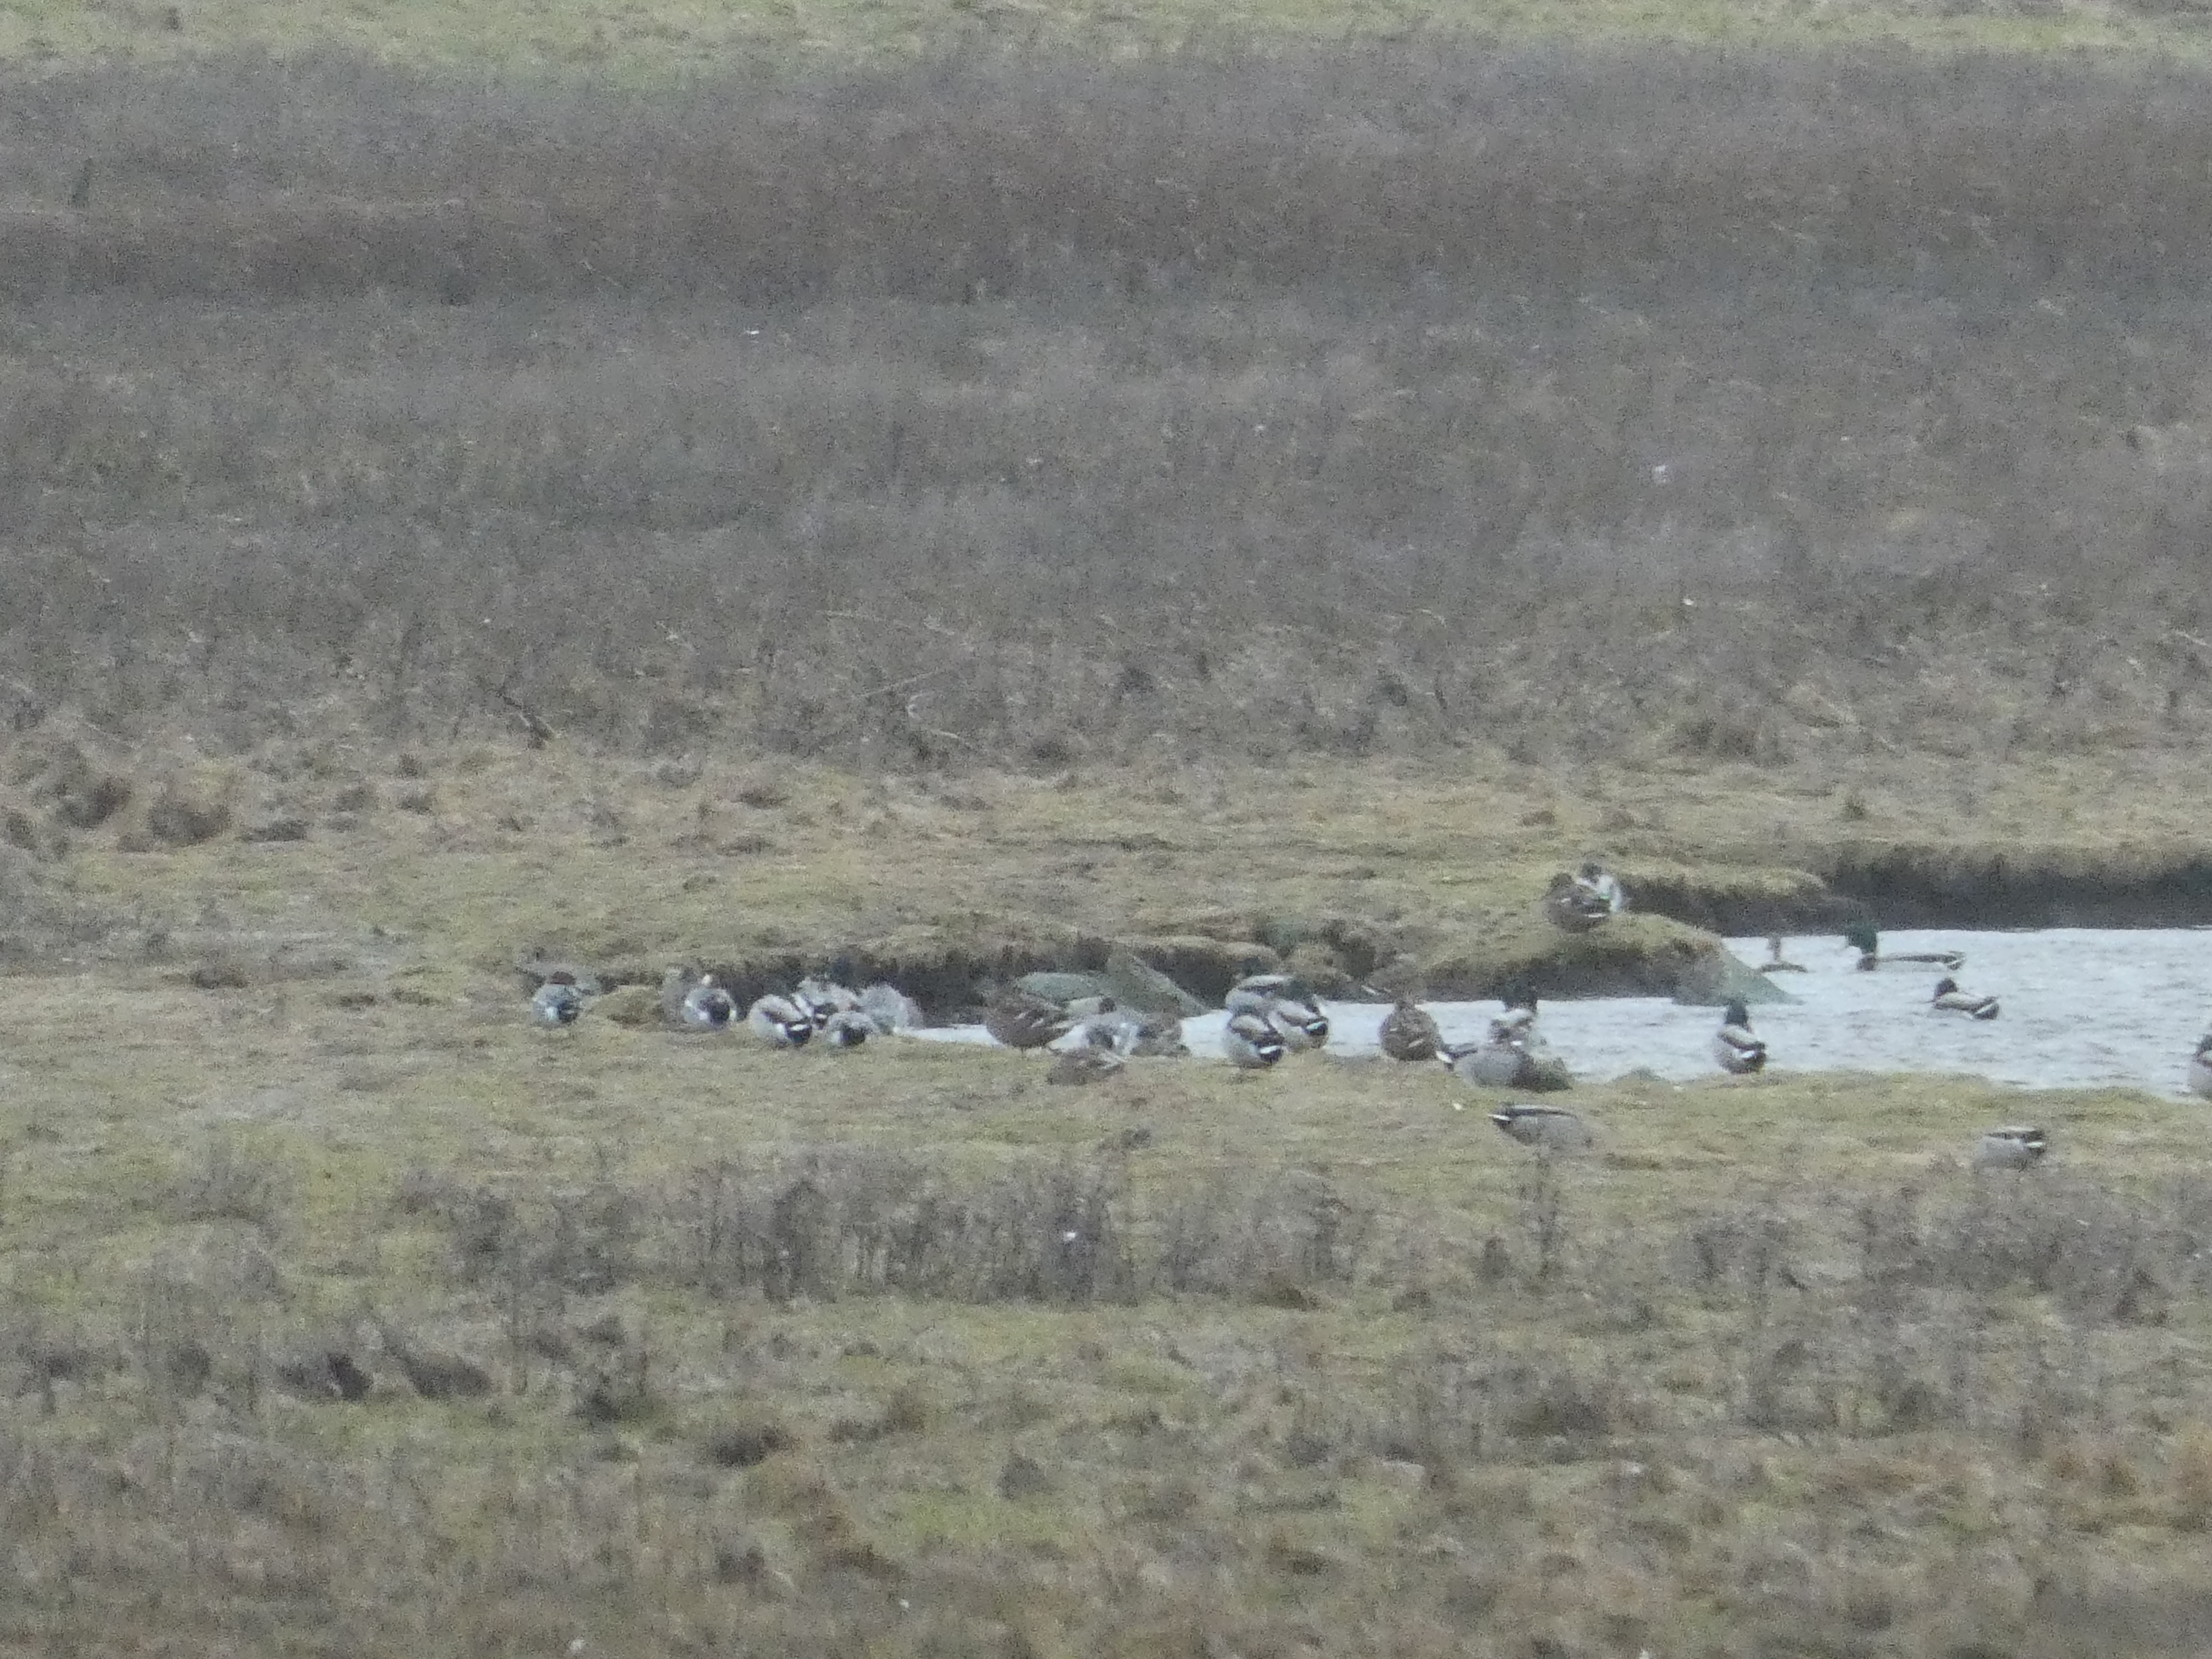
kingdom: Animalia
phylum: Chordata
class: Aves
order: Anseriformes
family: Anatidae
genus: Anas
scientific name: Anas platyrhynchos
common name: Gråand
